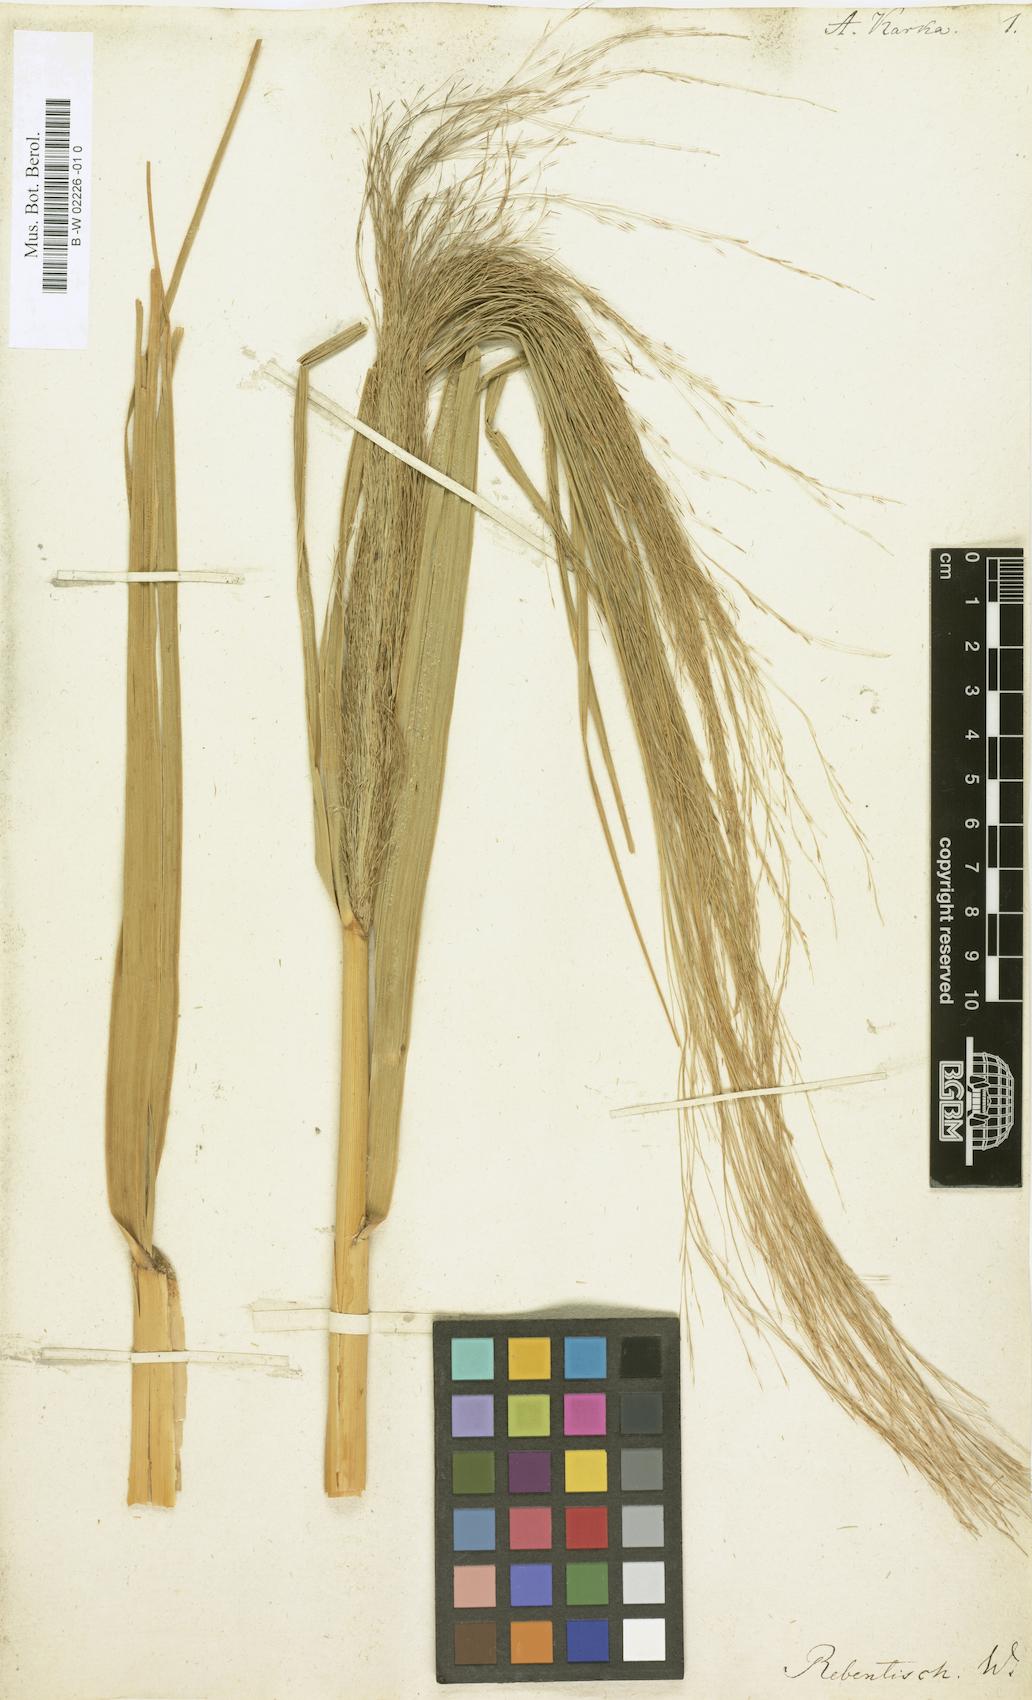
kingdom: Plantae
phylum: Tracheophyta
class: Liliopsida
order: Poales
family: Poaceae
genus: Phragmites
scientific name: Phragmites karka
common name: Tropical reed
